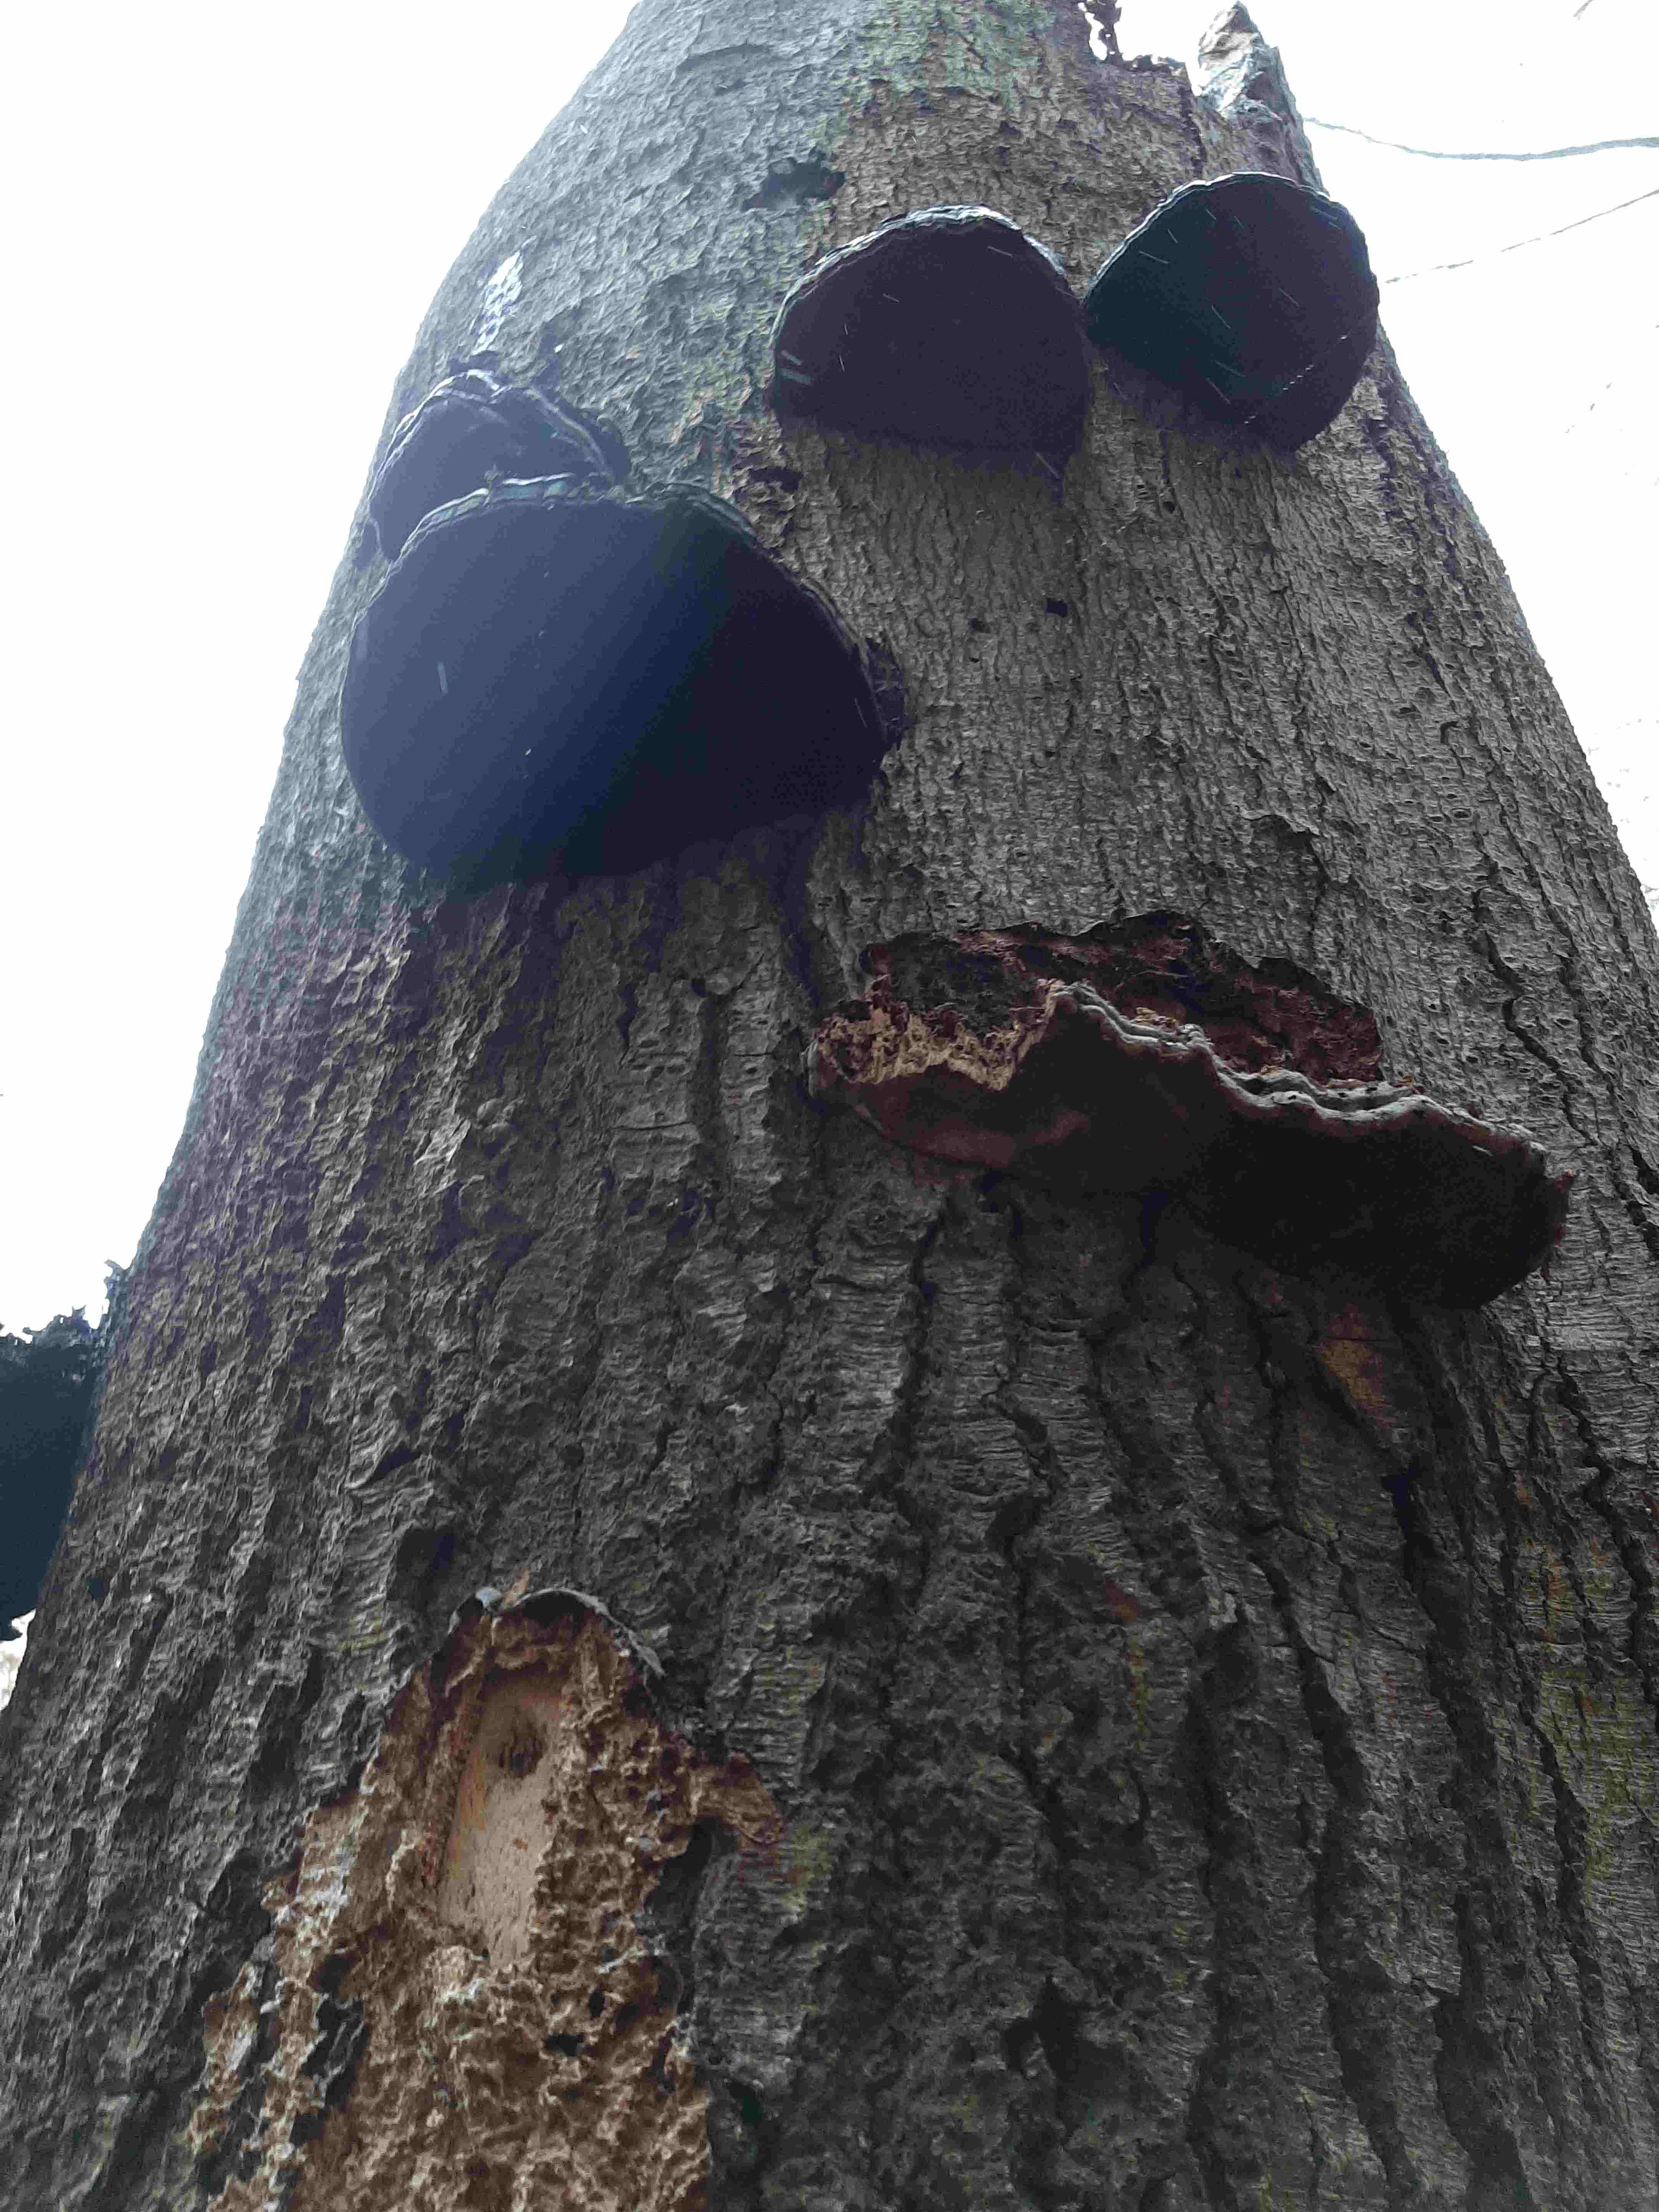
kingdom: Fungi
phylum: Basidiomycota
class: Agaricomycetes
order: Polyporales
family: Polyporaceae
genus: Fomes
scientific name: Fomes fomentarius
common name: tøndersvamp
